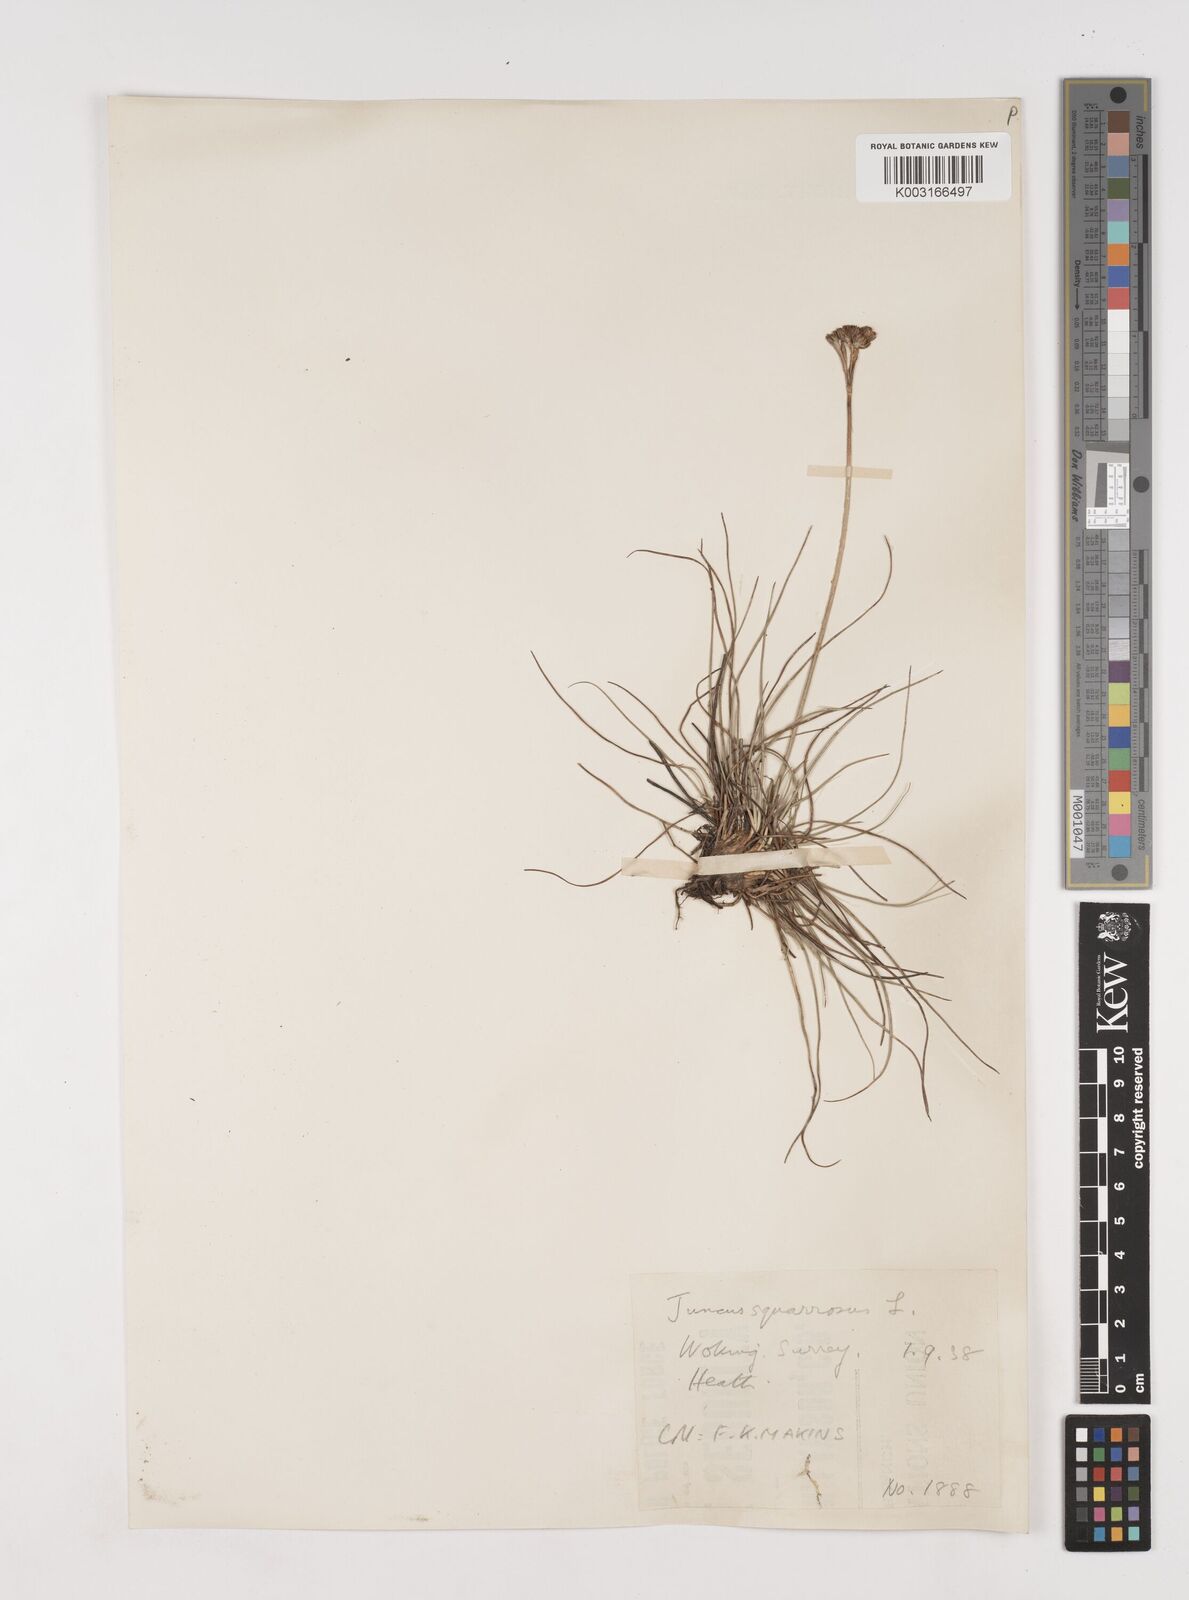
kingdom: Plantae
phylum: Tracheophyta
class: Liliopsida
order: Poales
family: Juncaceae
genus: Juncus
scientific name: Juncus squarrosus
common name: Heath rush
